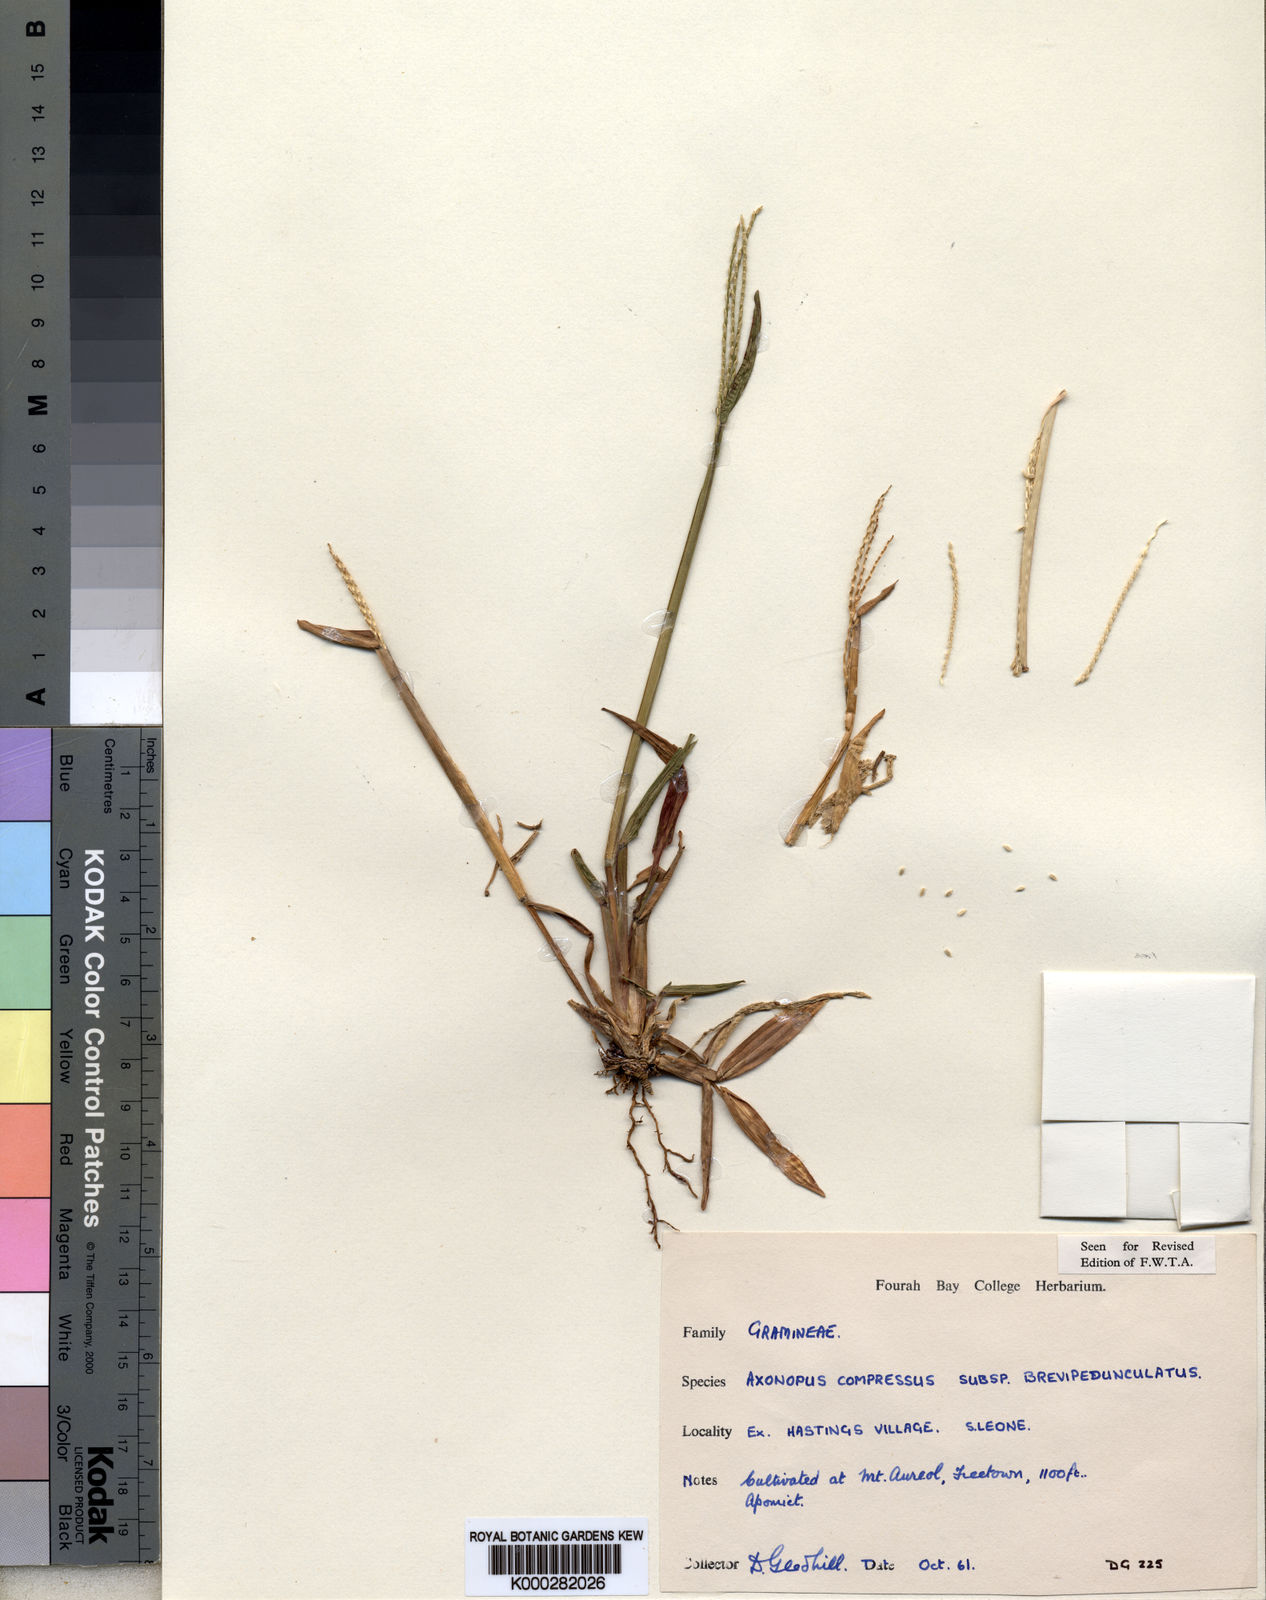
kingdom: Plantae
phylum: Tracheophyta
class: Liliopsida
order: Poales
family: Poaceae
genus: Axonopus
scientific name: Axonopus compressus
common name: American carpet grass
